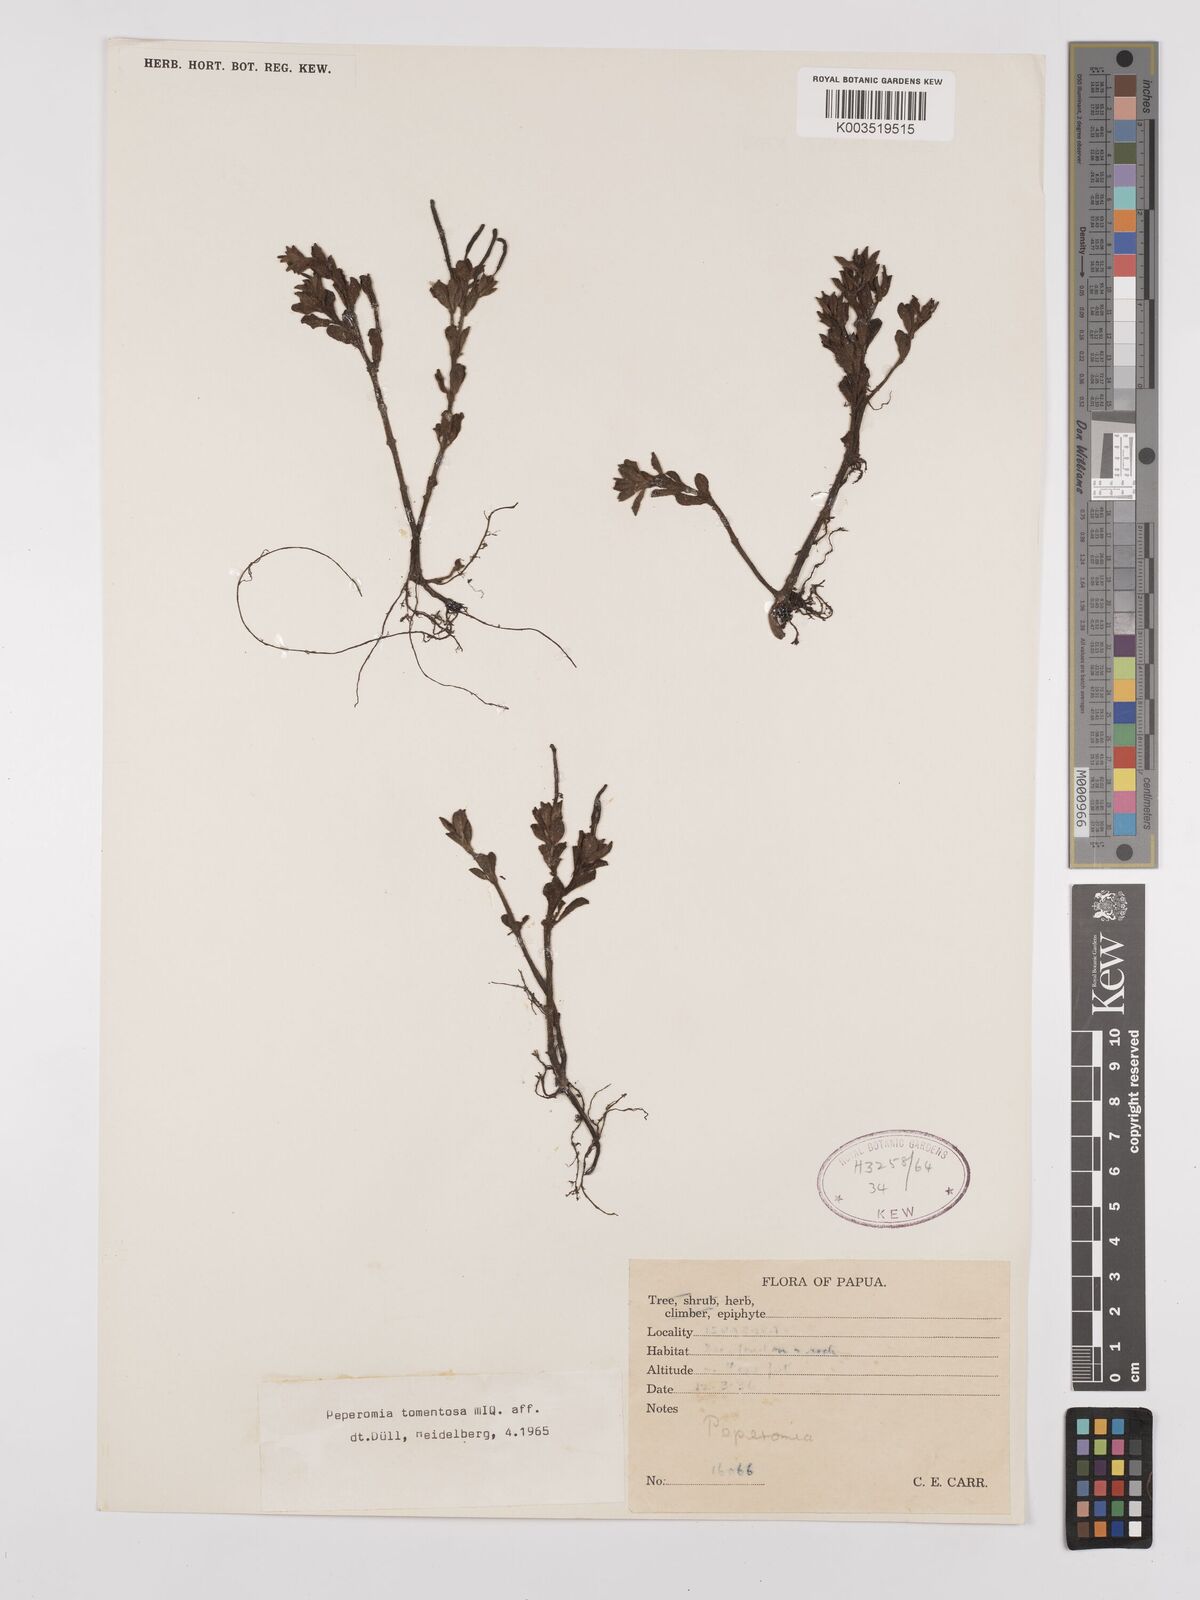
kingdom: Plantae
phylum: Tracheophyta
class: Magnoliopsida
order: Piperales
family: Piperaceae
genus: Peperomia
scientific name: Peperomia tomentosa
